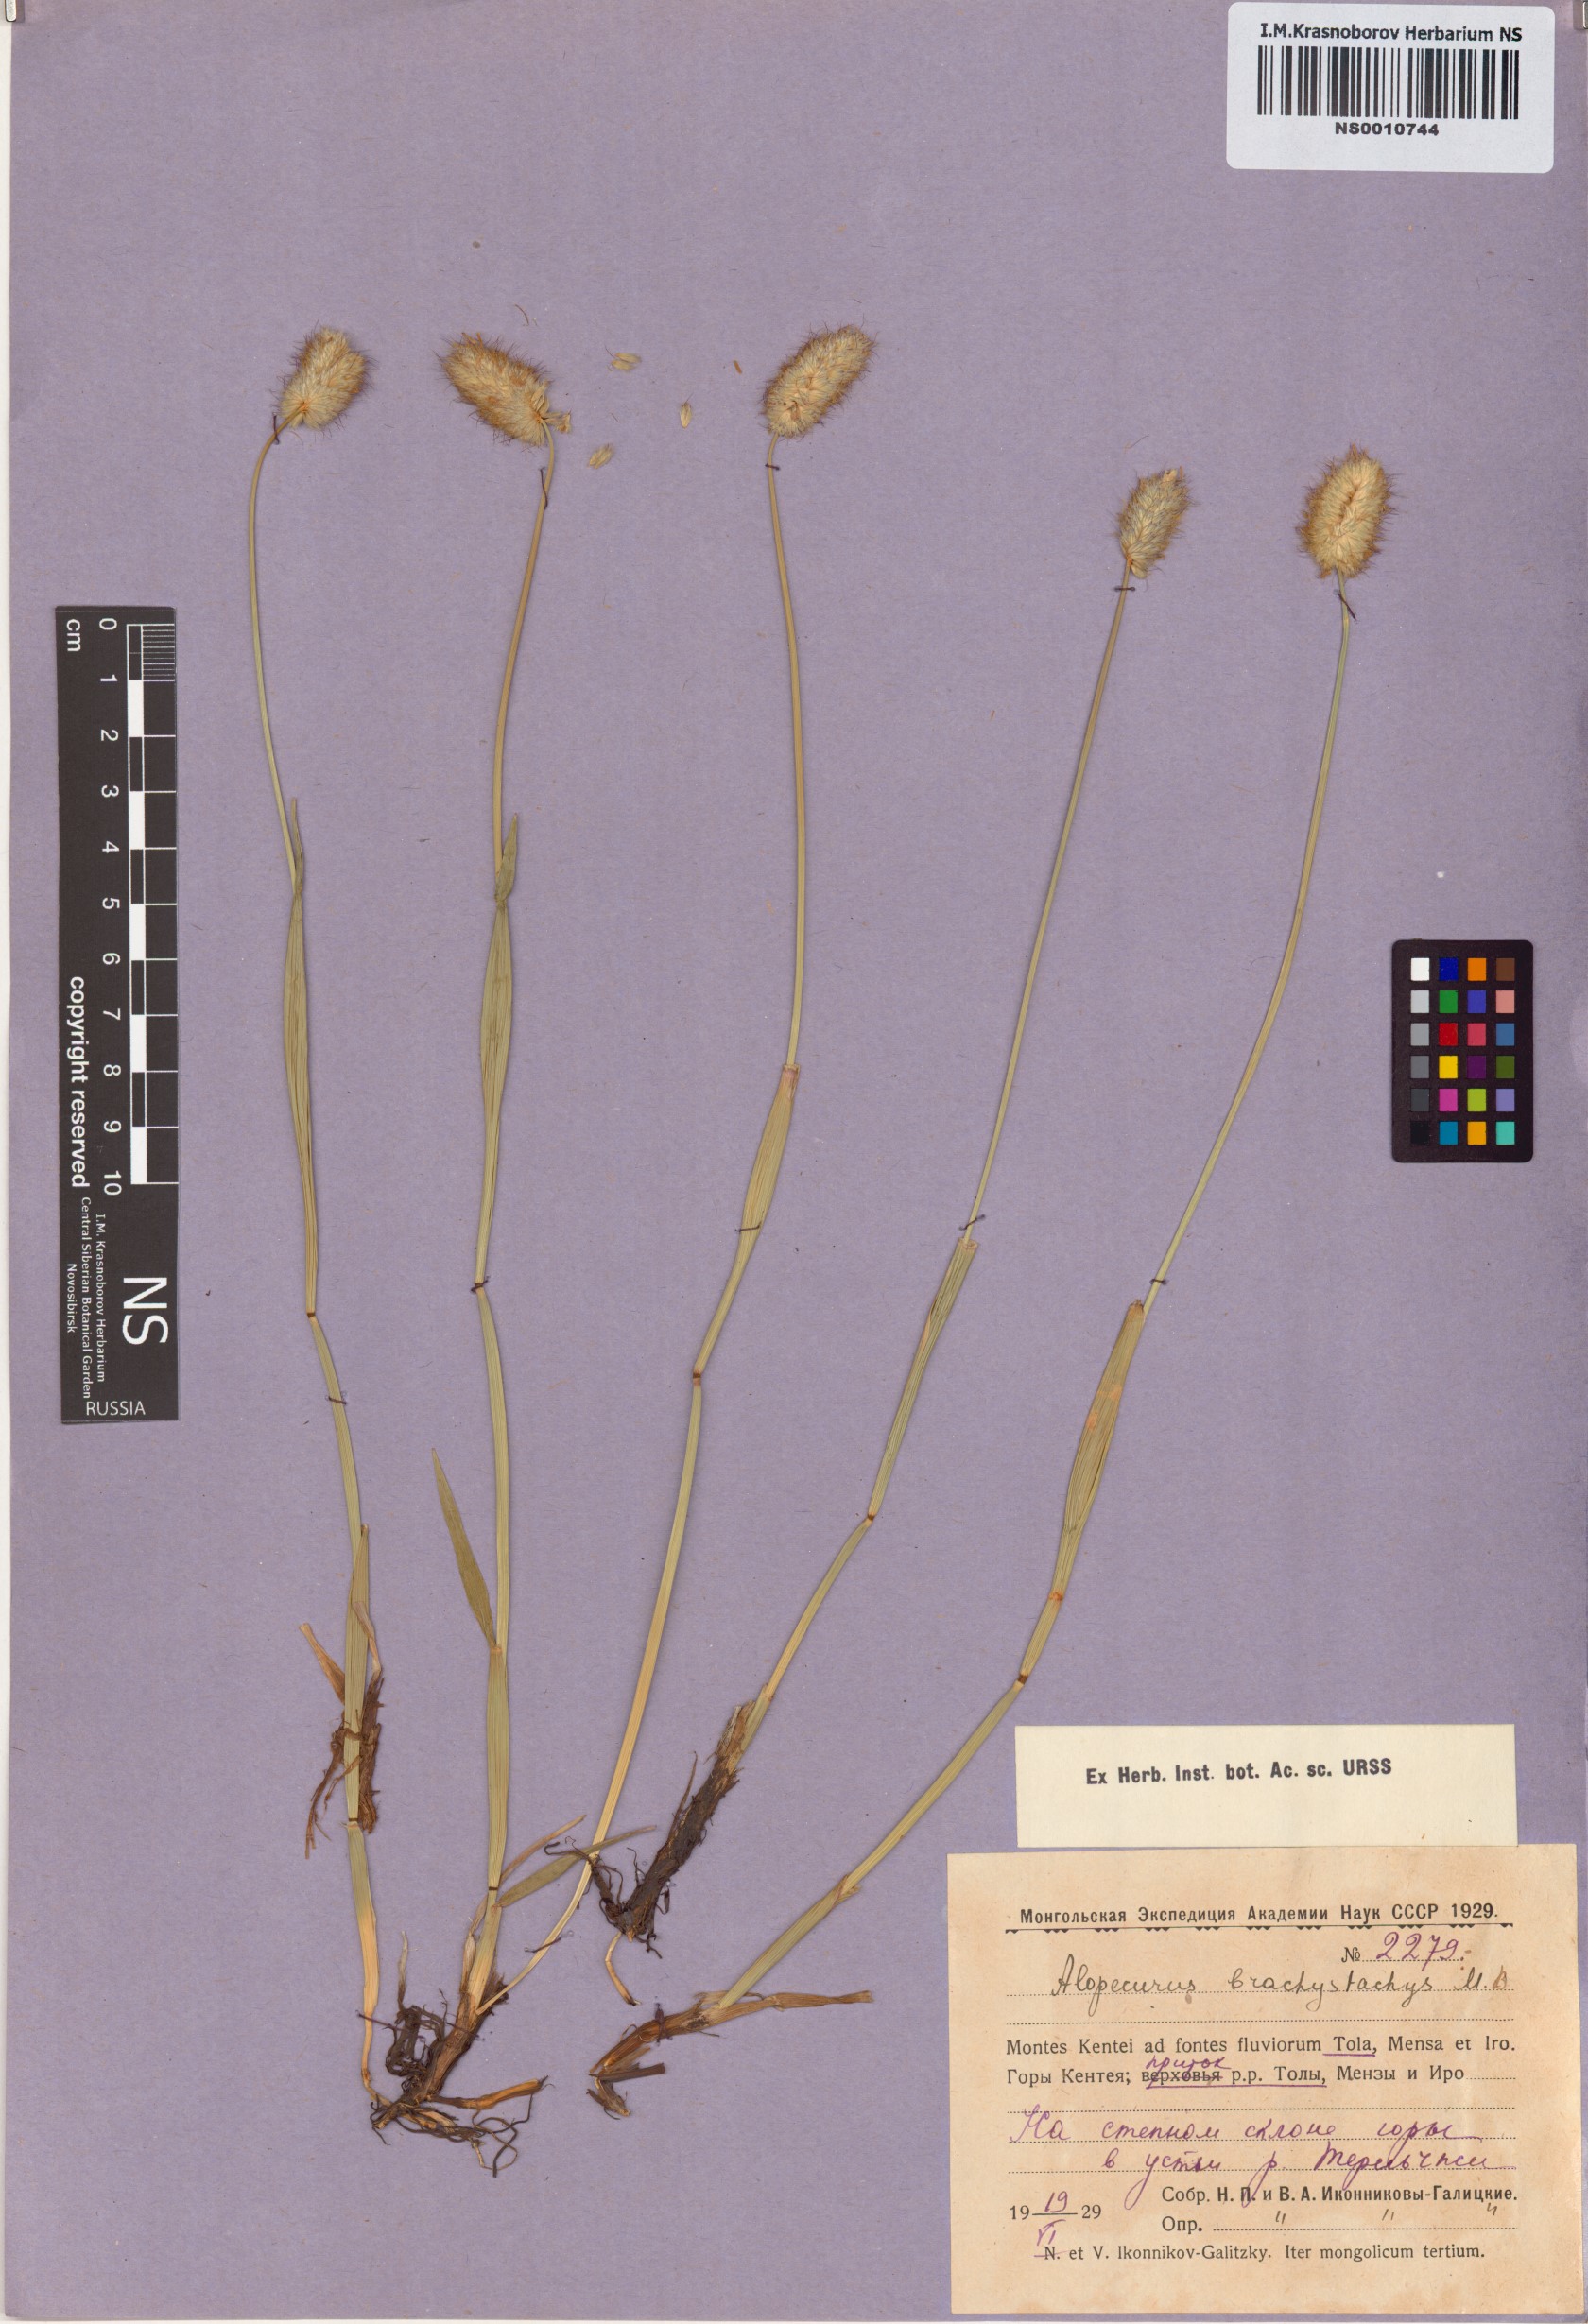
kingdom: Plantae
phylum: Tracheophyta
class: Liliopsida
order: Poales
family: Poaceae
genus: Alopecurus
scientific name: Alopecurus brachystachyus
